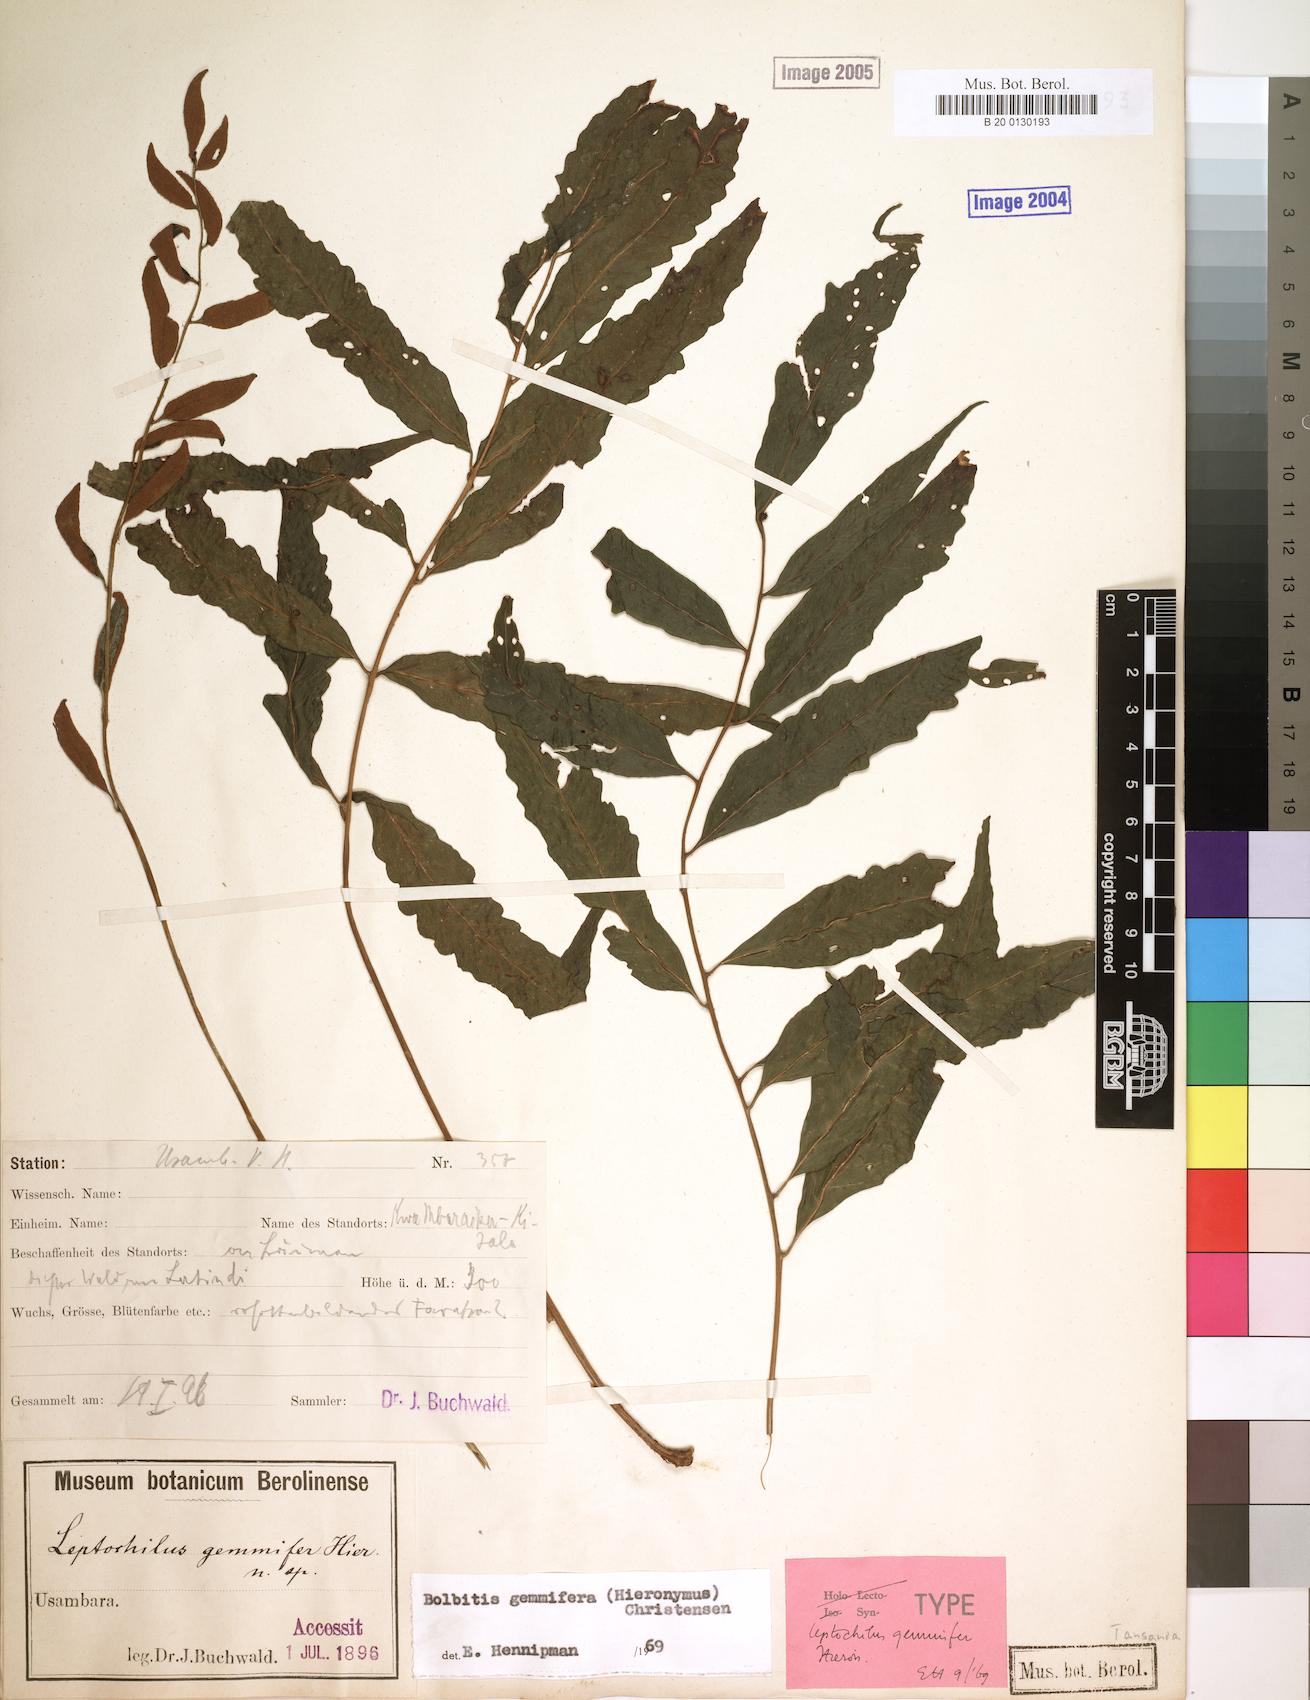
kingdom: Plantae
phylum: Tracheophyta
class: Polypodiopsida
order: Polypodiales
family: Dryopteridaceae
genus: Bolbitis
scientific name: Bolbitis gemmifer
